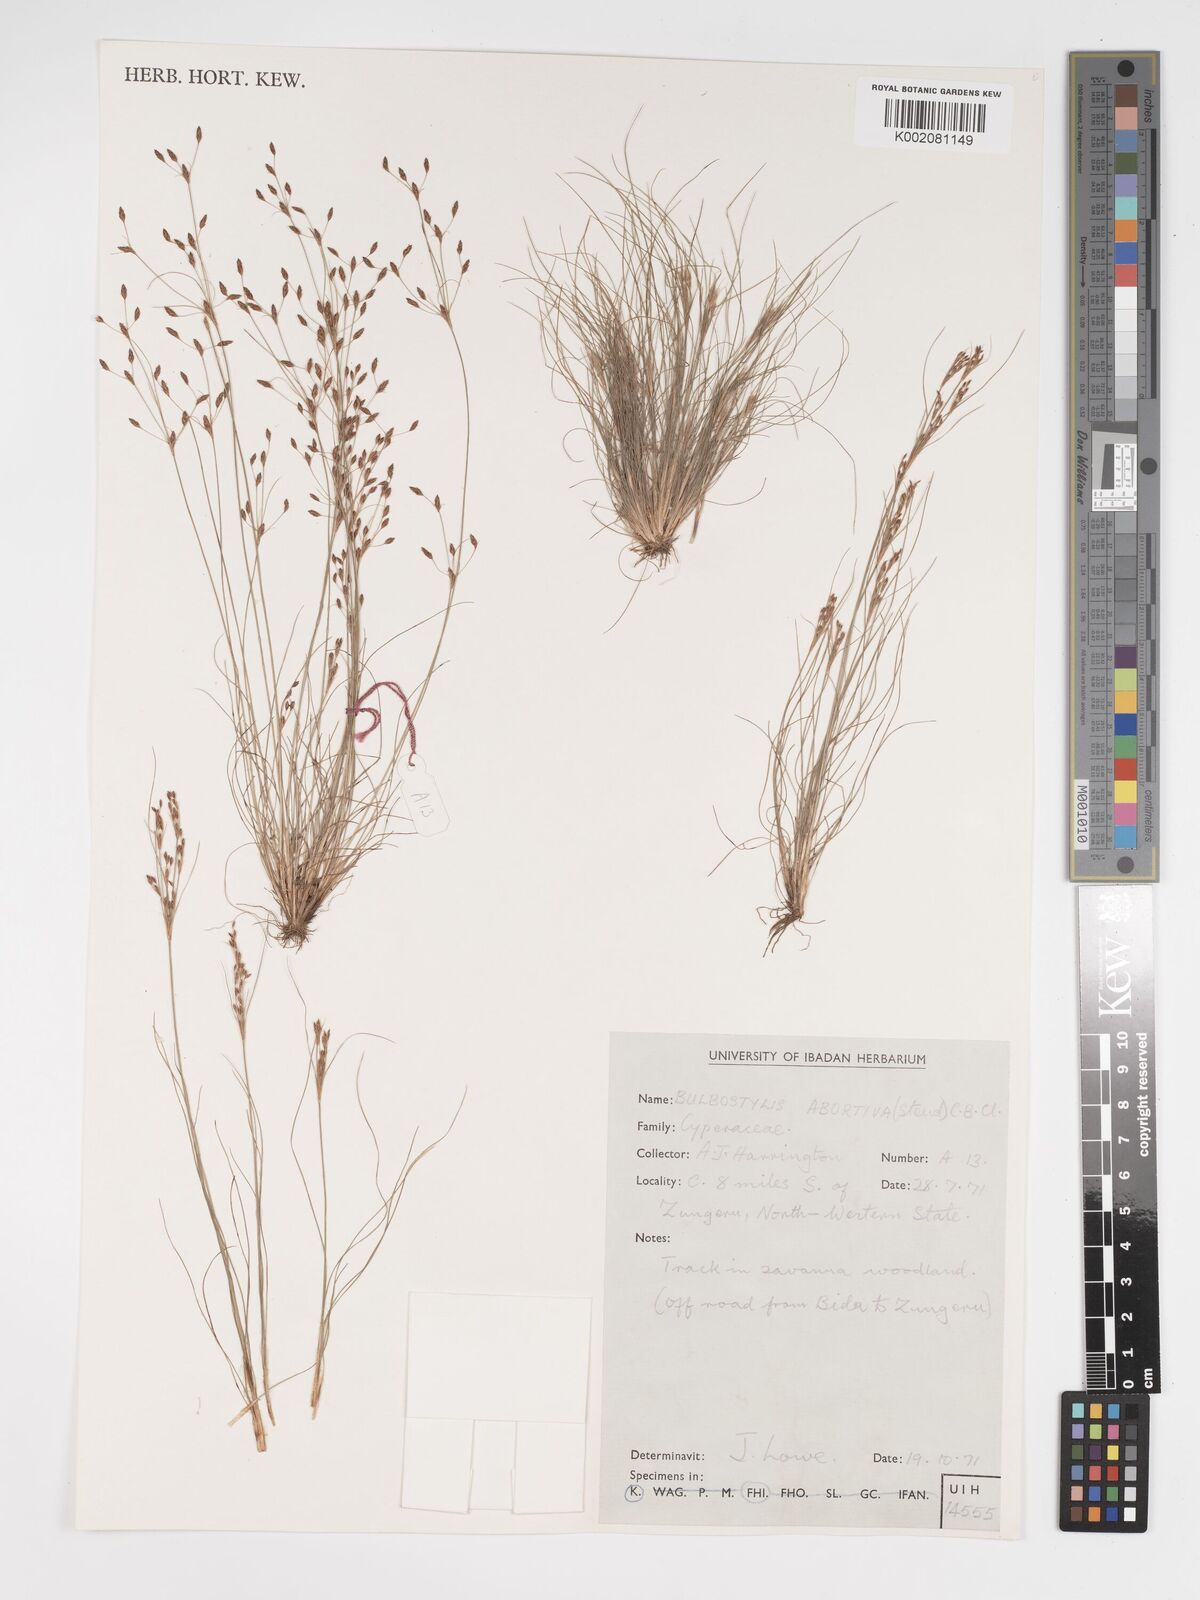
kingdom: Plantae
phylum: Tracheophyta
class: Liliopsida
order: Poales
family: Cyperaceae
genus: Bulbostylis
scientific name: Bulbostylis abortiva
